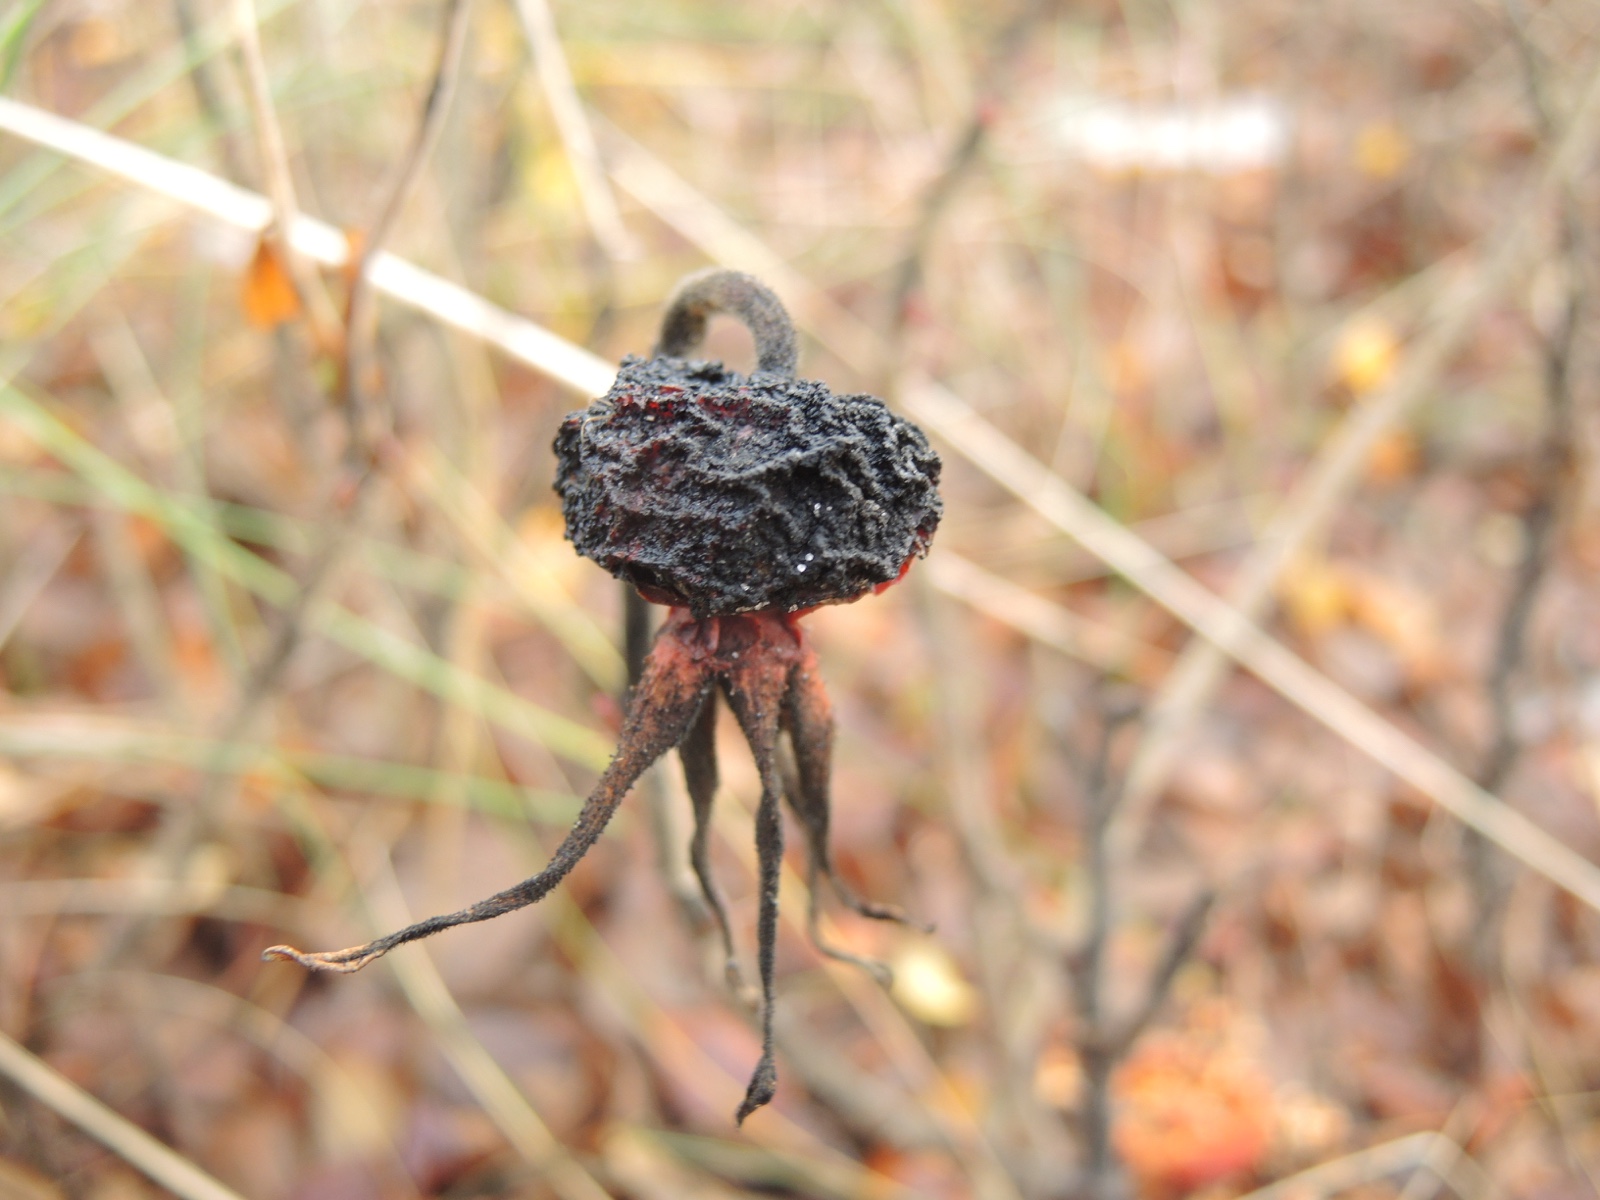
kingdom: Fungi
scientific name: Fungi
